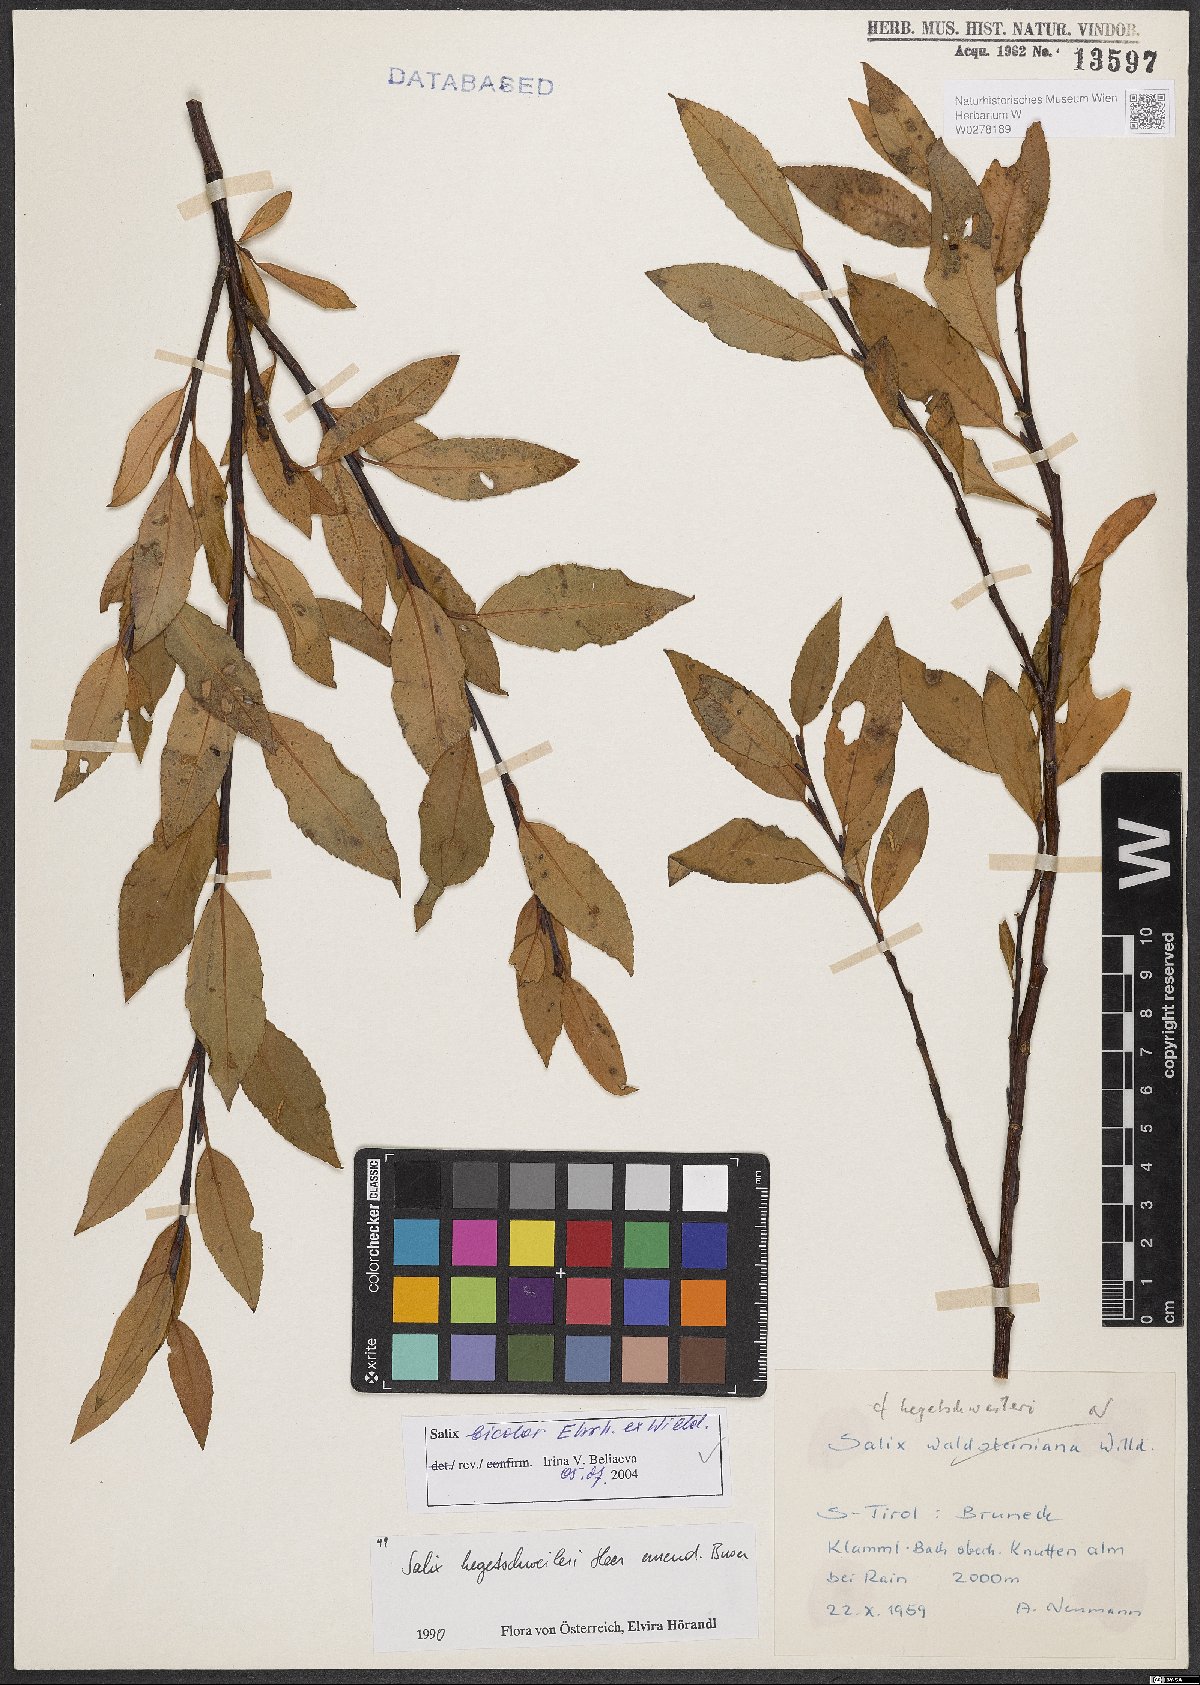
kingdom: Plantae
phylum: Tracheophyta
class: Magnoliopsida
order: Malpighiales
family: Salicaceae
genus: Salix
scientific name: Salix bicolor
